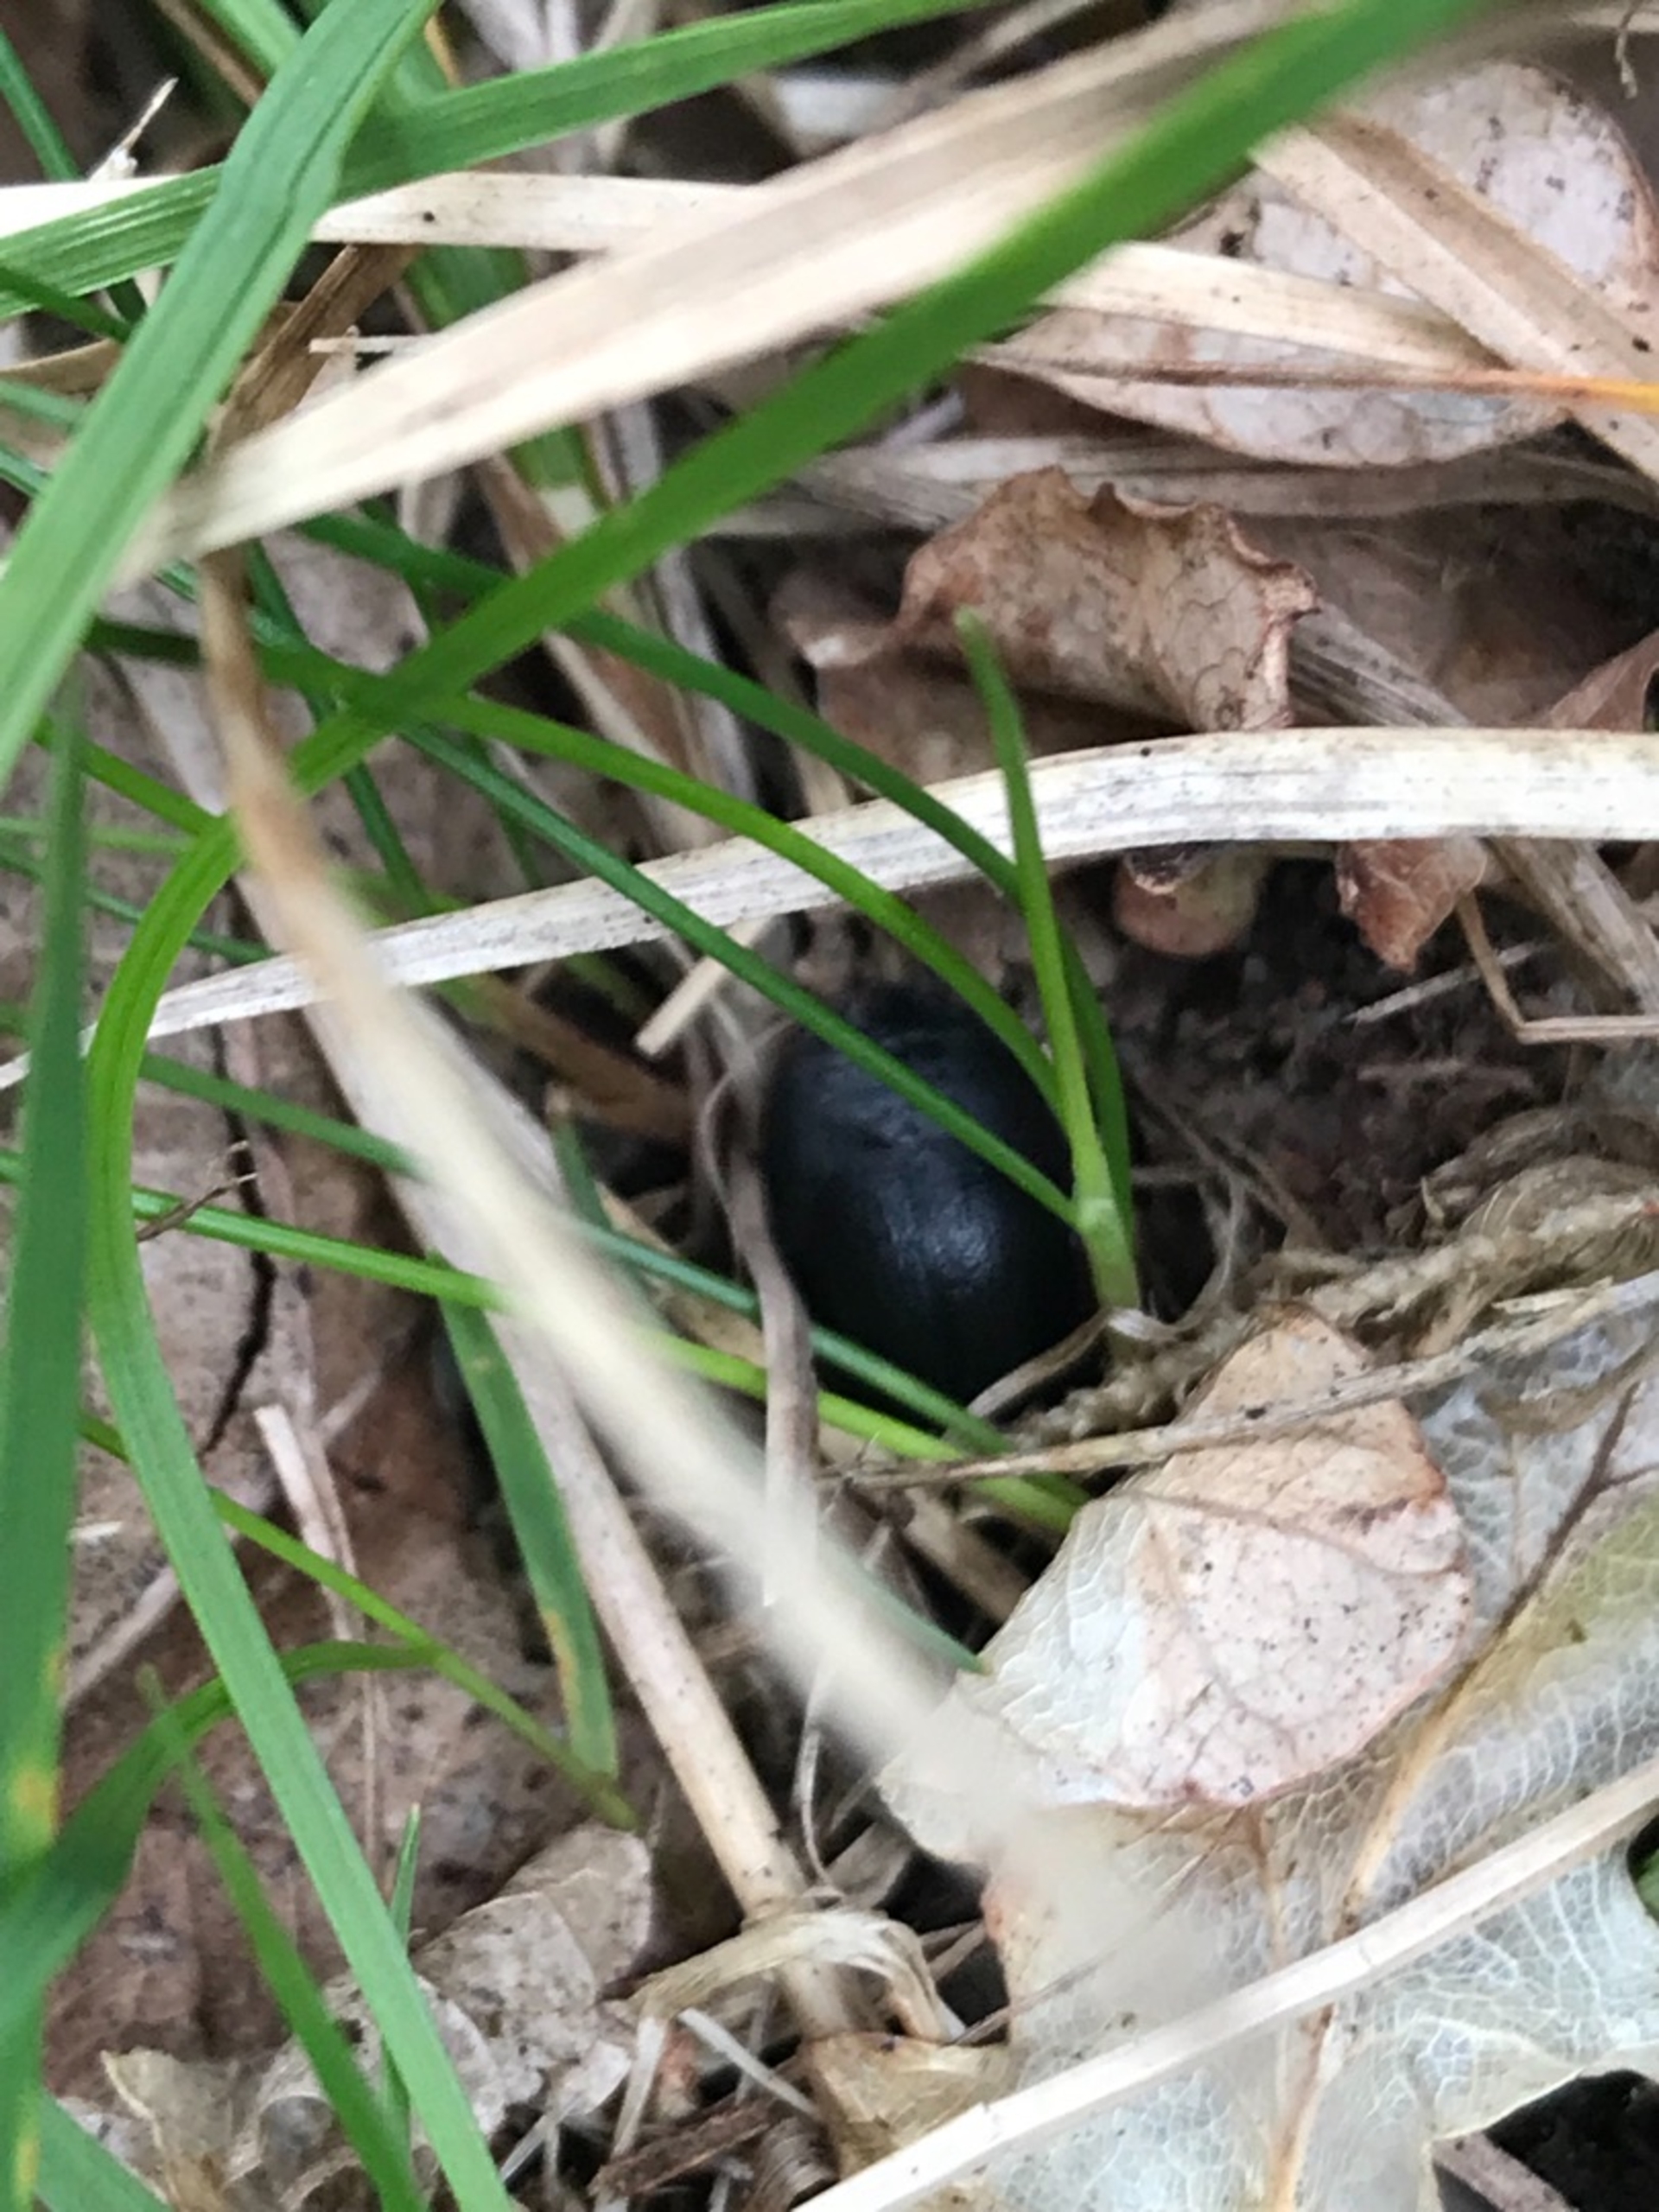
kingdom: Animalia
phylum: Arthropoda
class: Insecta
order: Coleoptera
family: Chrysomelidae
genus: Galeruca
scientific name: Galeruca tanaceti
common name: Rejnfanbladbille
